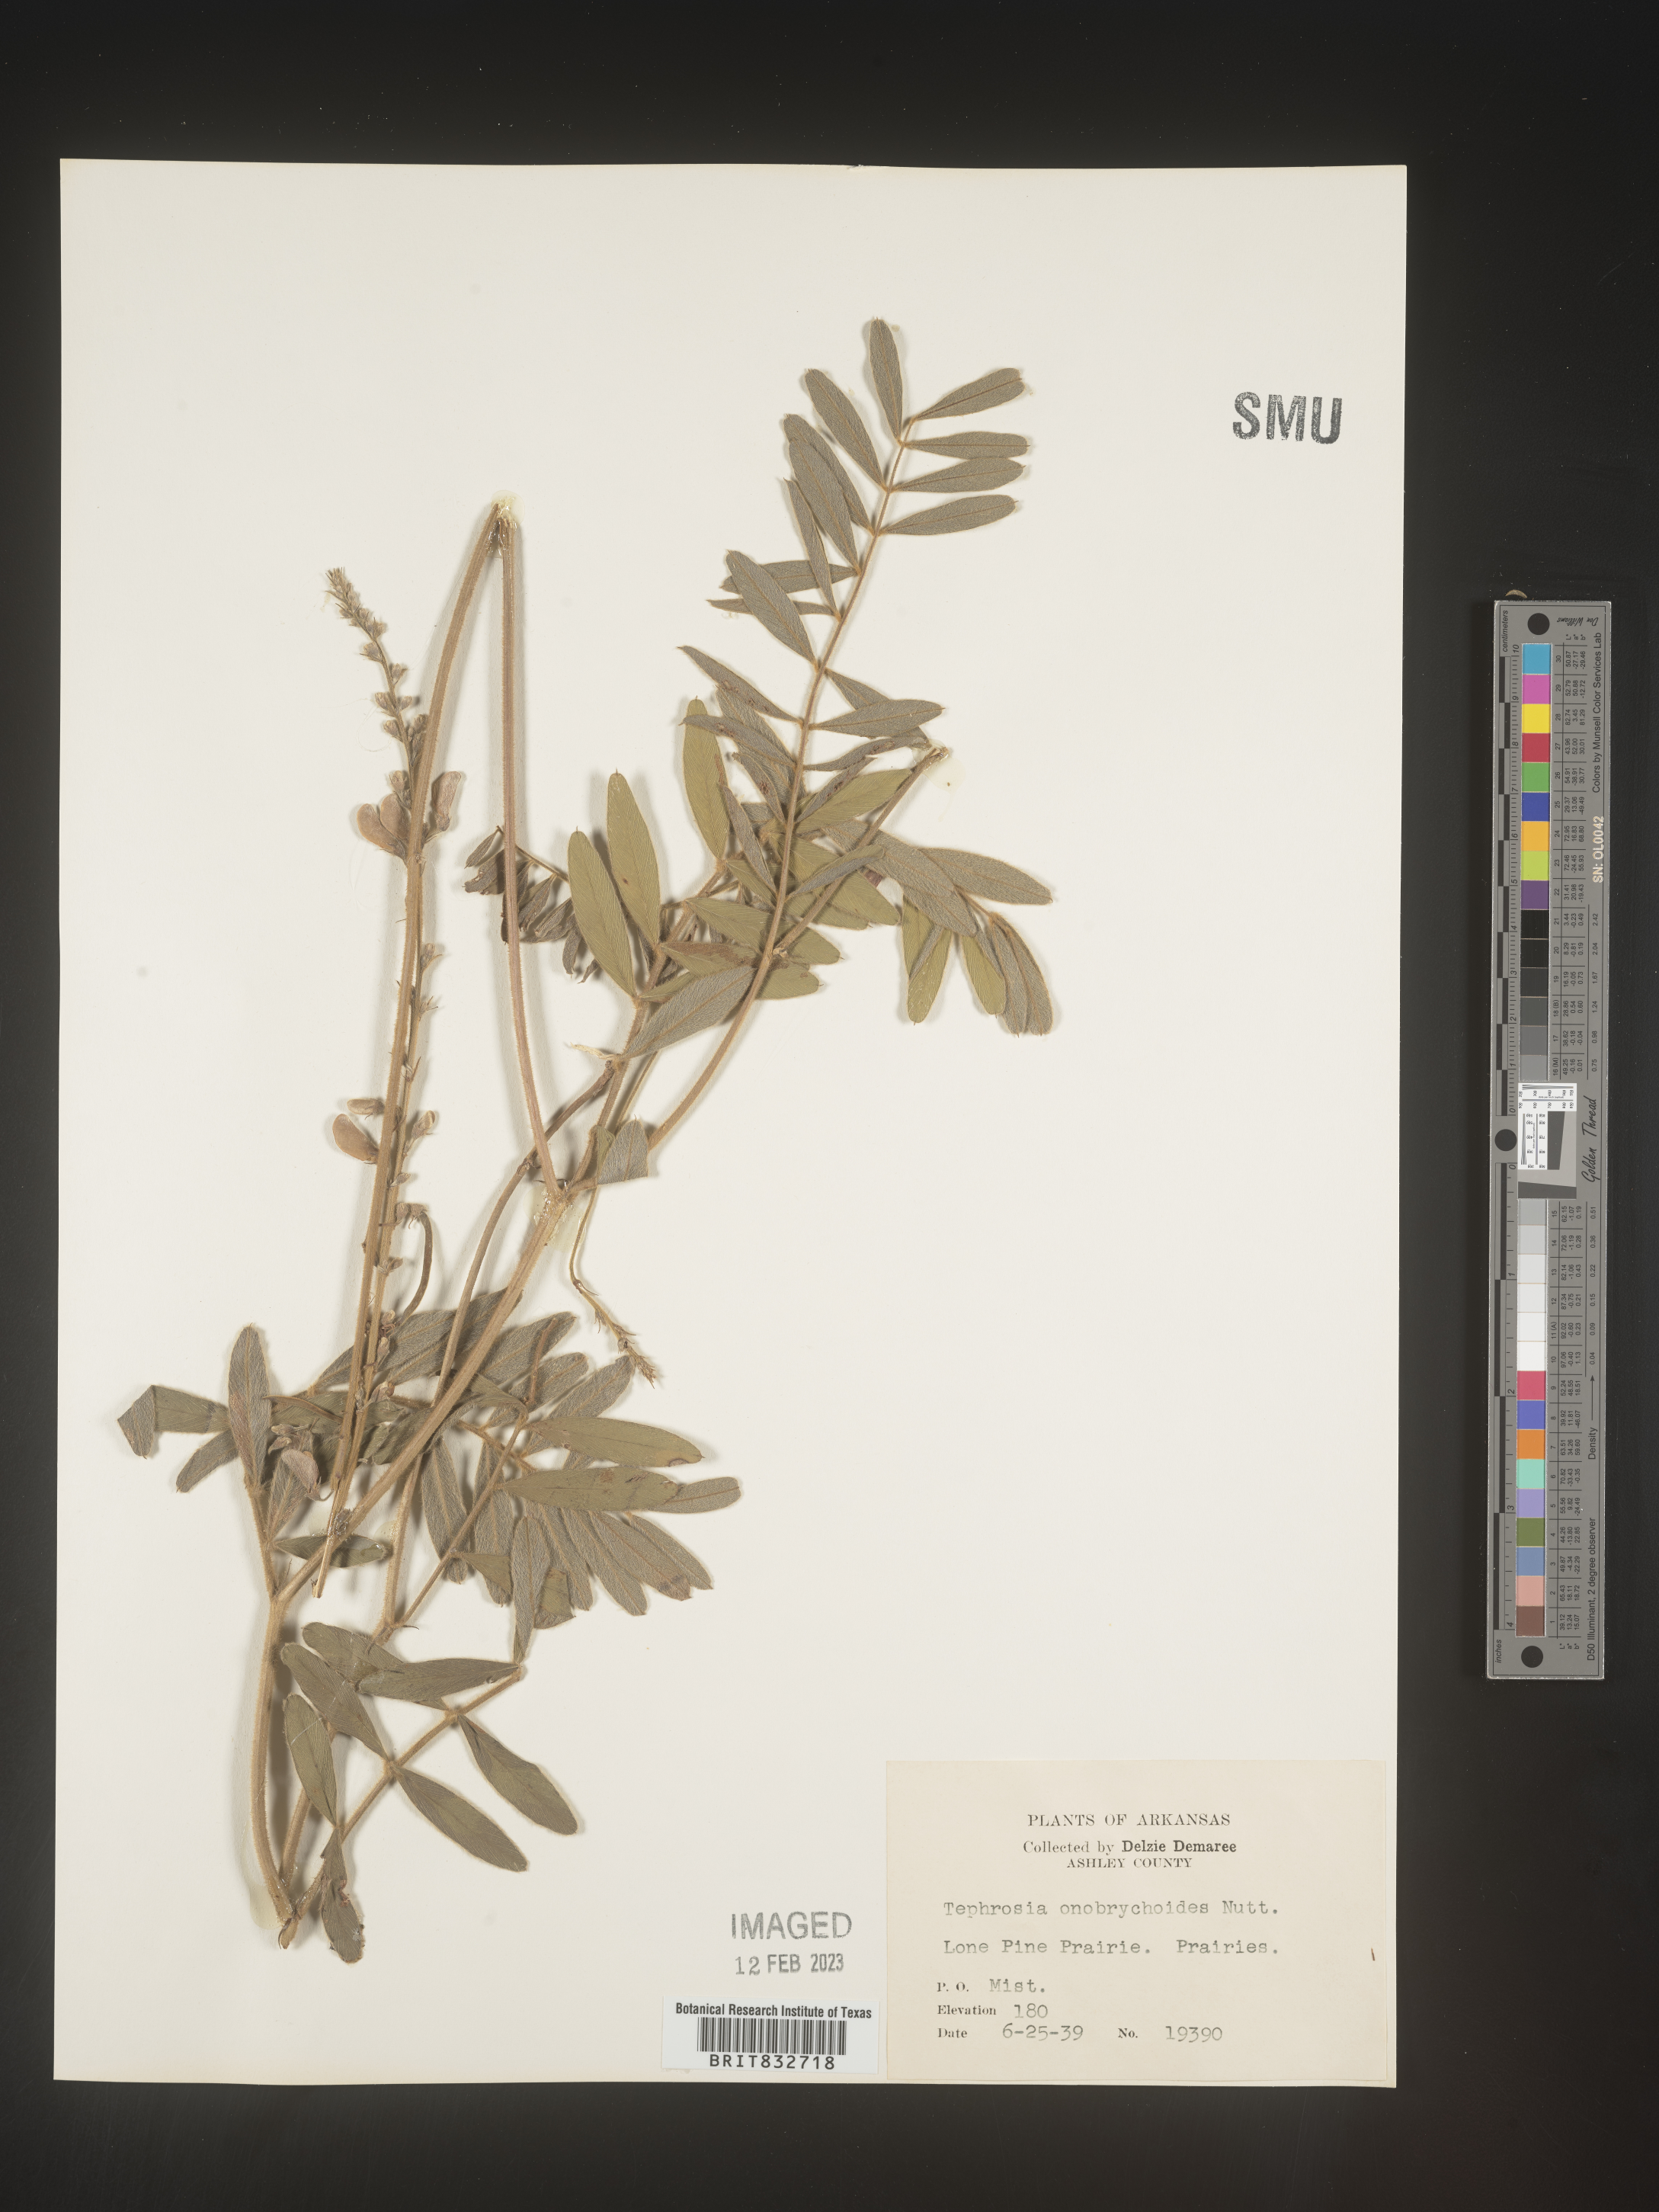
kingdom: Plantae
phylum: Tracheophyta
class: Magnoliopsida
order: Fabales
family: Fabaceae
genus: Tephrosia
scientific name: Tephrosia onobrychoides
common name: Multi-bloom hoary-pea
